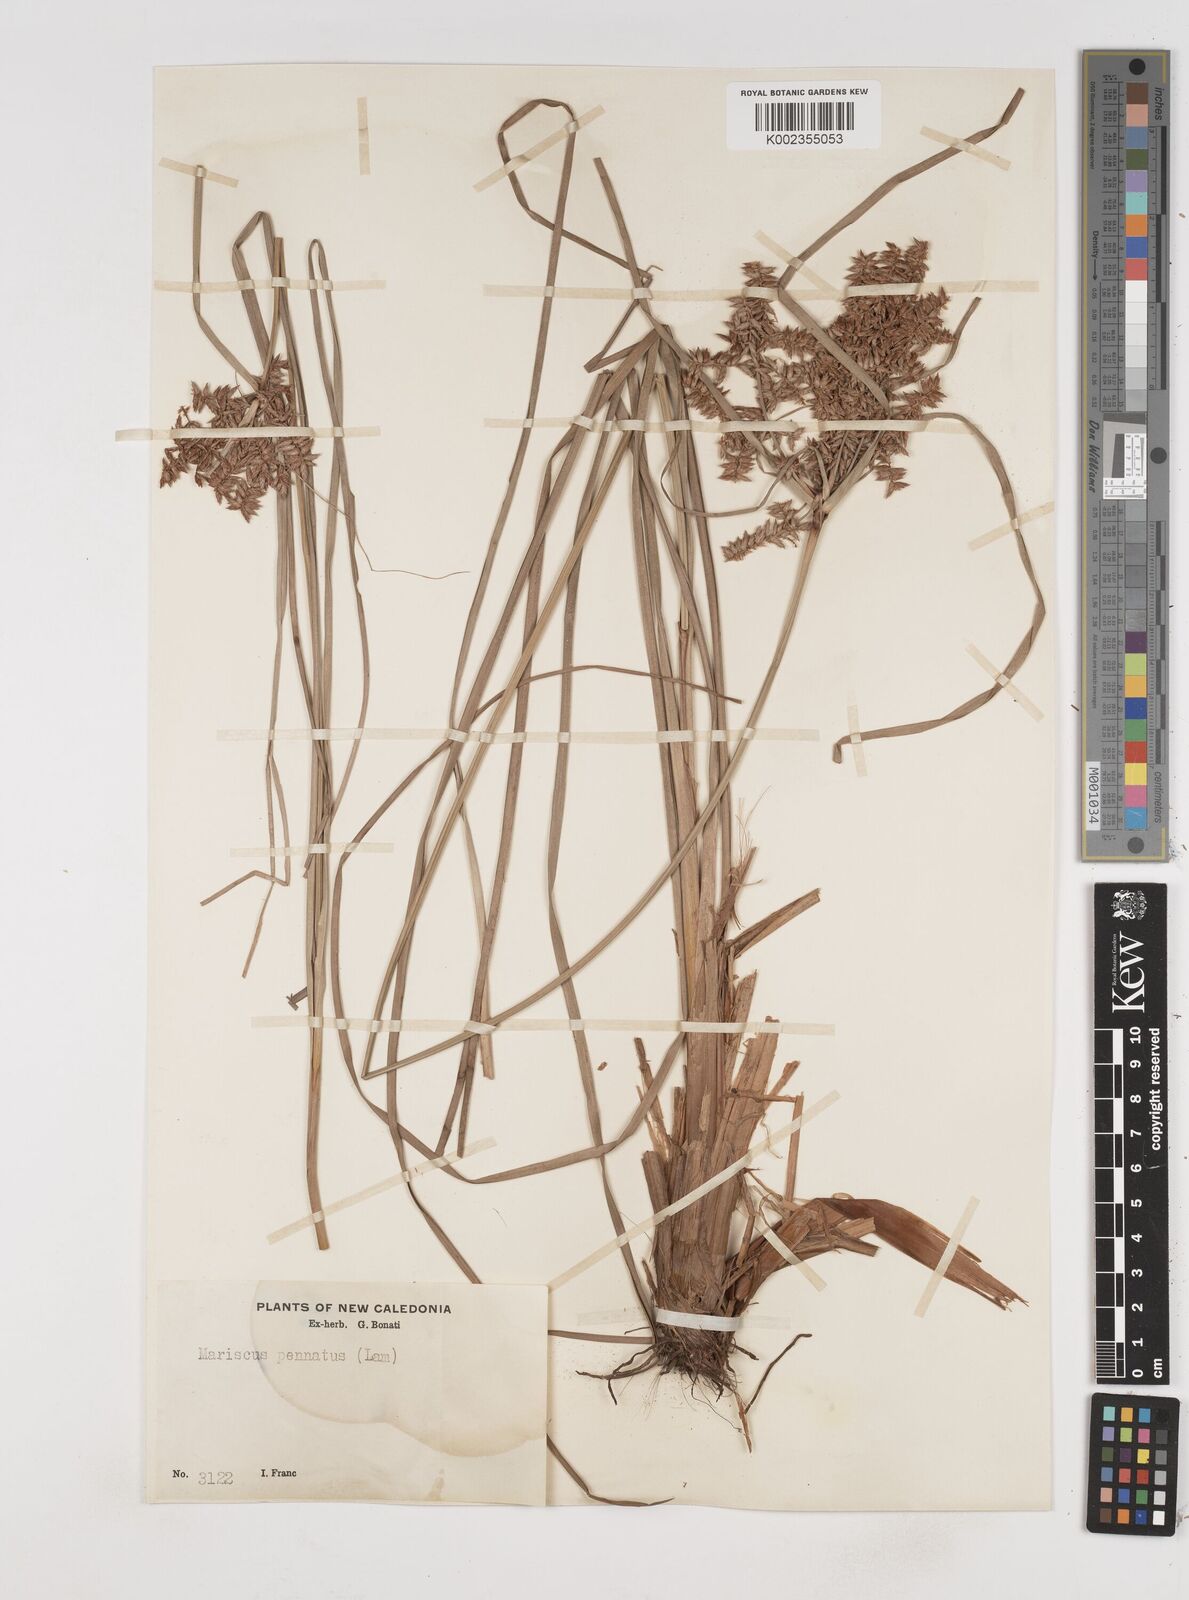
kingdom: Plantae
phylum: Tracheophyta
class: Liliopsida
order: Poales
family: Cyperaceae
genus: Cyperus
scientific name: Cyperus javanicus
